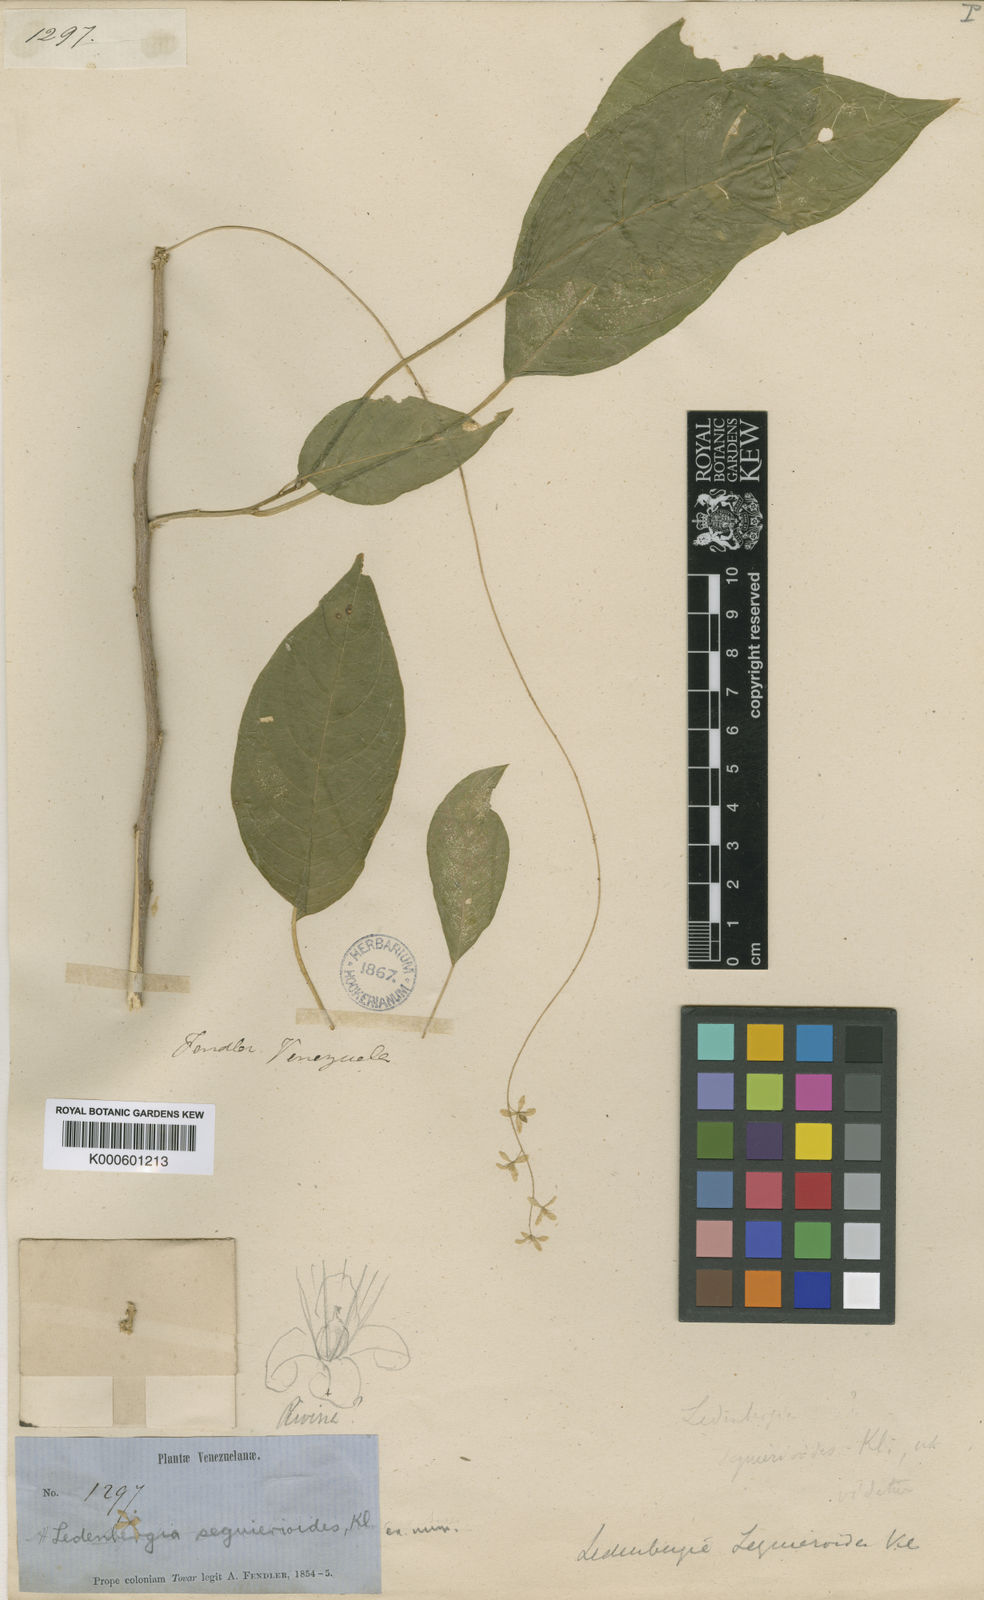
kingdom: Plantae
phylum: Tracheophyta
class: Magnoliopsida
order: Caryophyllales
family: Phytolaccaceae
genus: Ledenbergia
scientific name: Ledenbergia seguierioides
